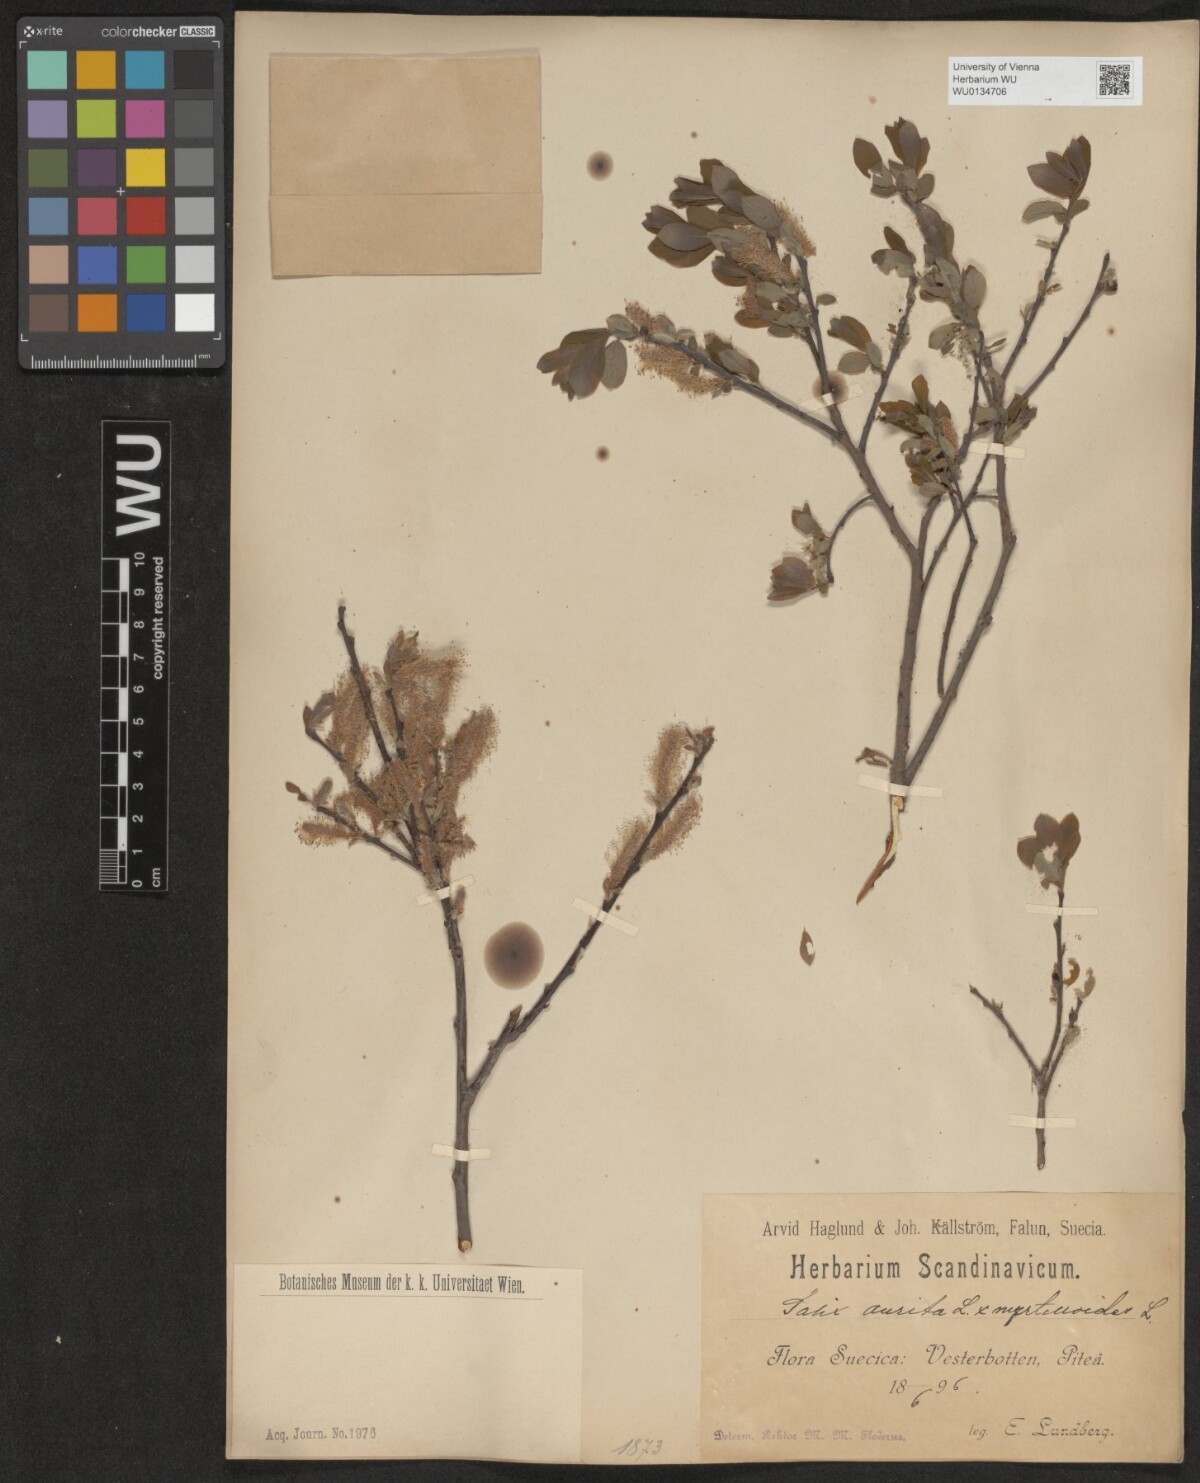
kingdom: Plantae
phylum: Tracheophyta
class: Magnoliopsida
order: Malpighiales
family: Salicaceae
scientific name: Salicaceae
